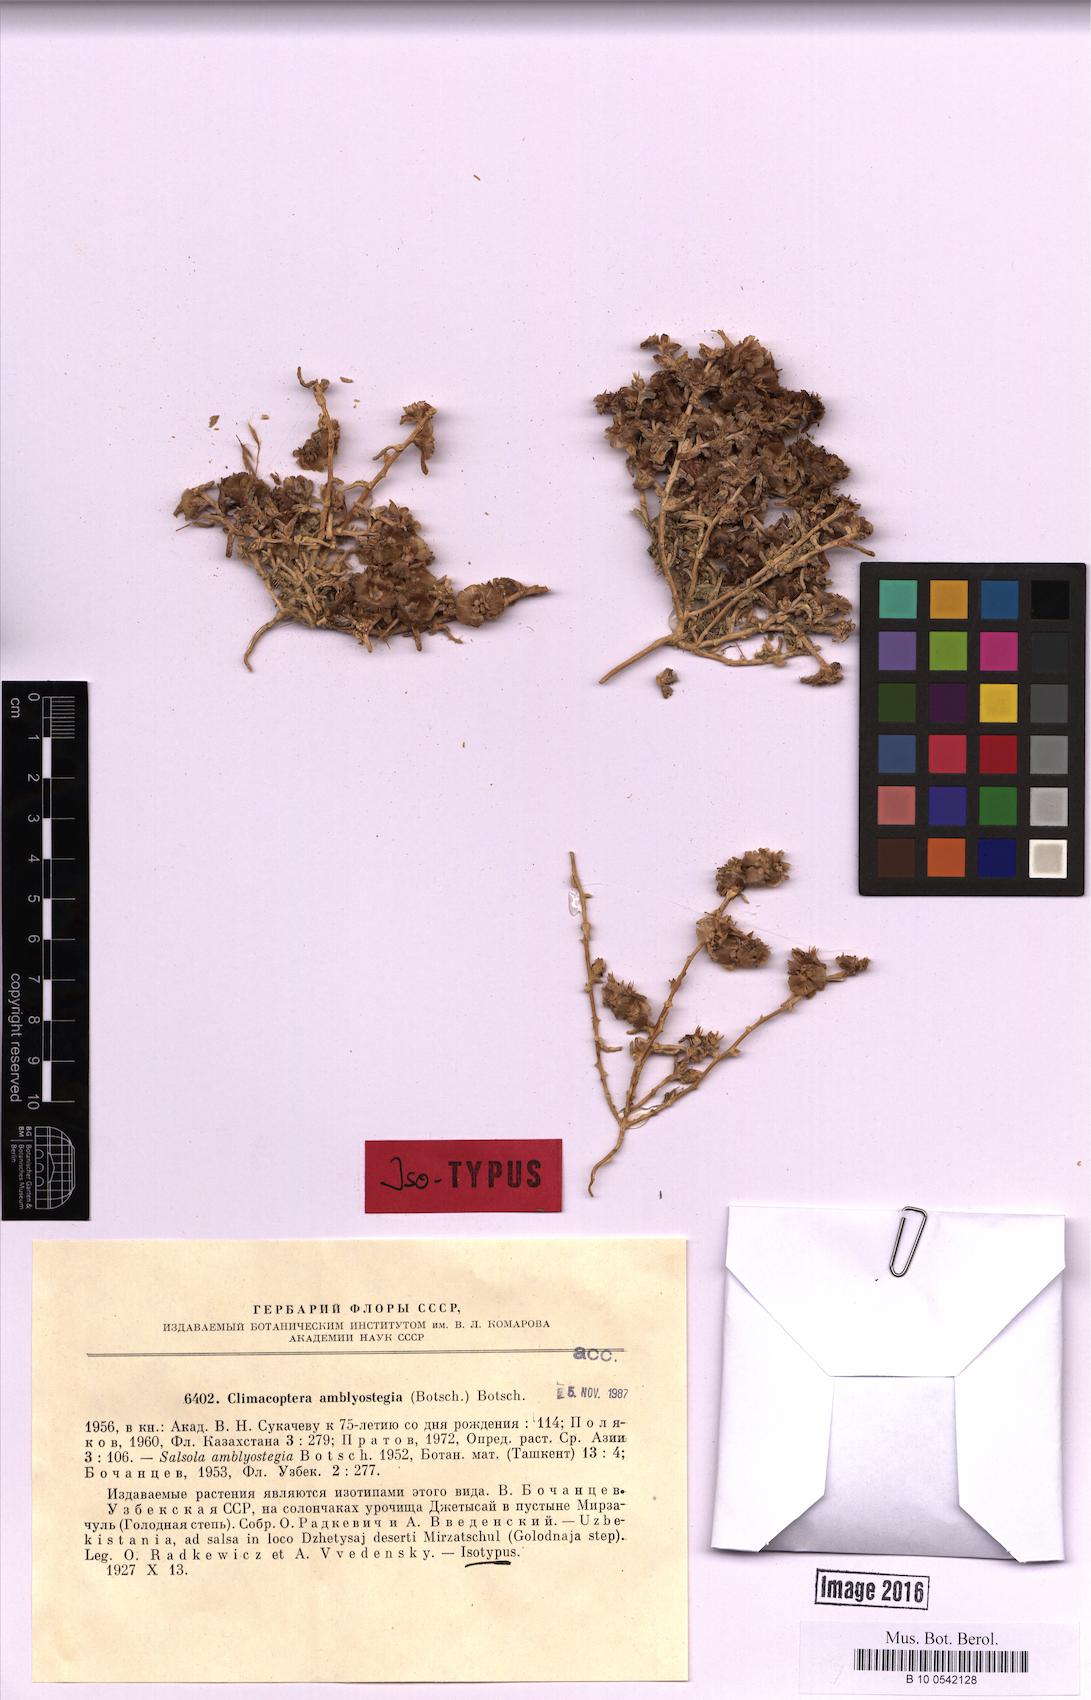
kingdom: Plantae
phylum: Tracheophyta
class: Magnoliopsida
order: Caryophyllales
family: Amaranthaceae
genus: Climacoptera
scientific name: Climacoptera amblyostegia
